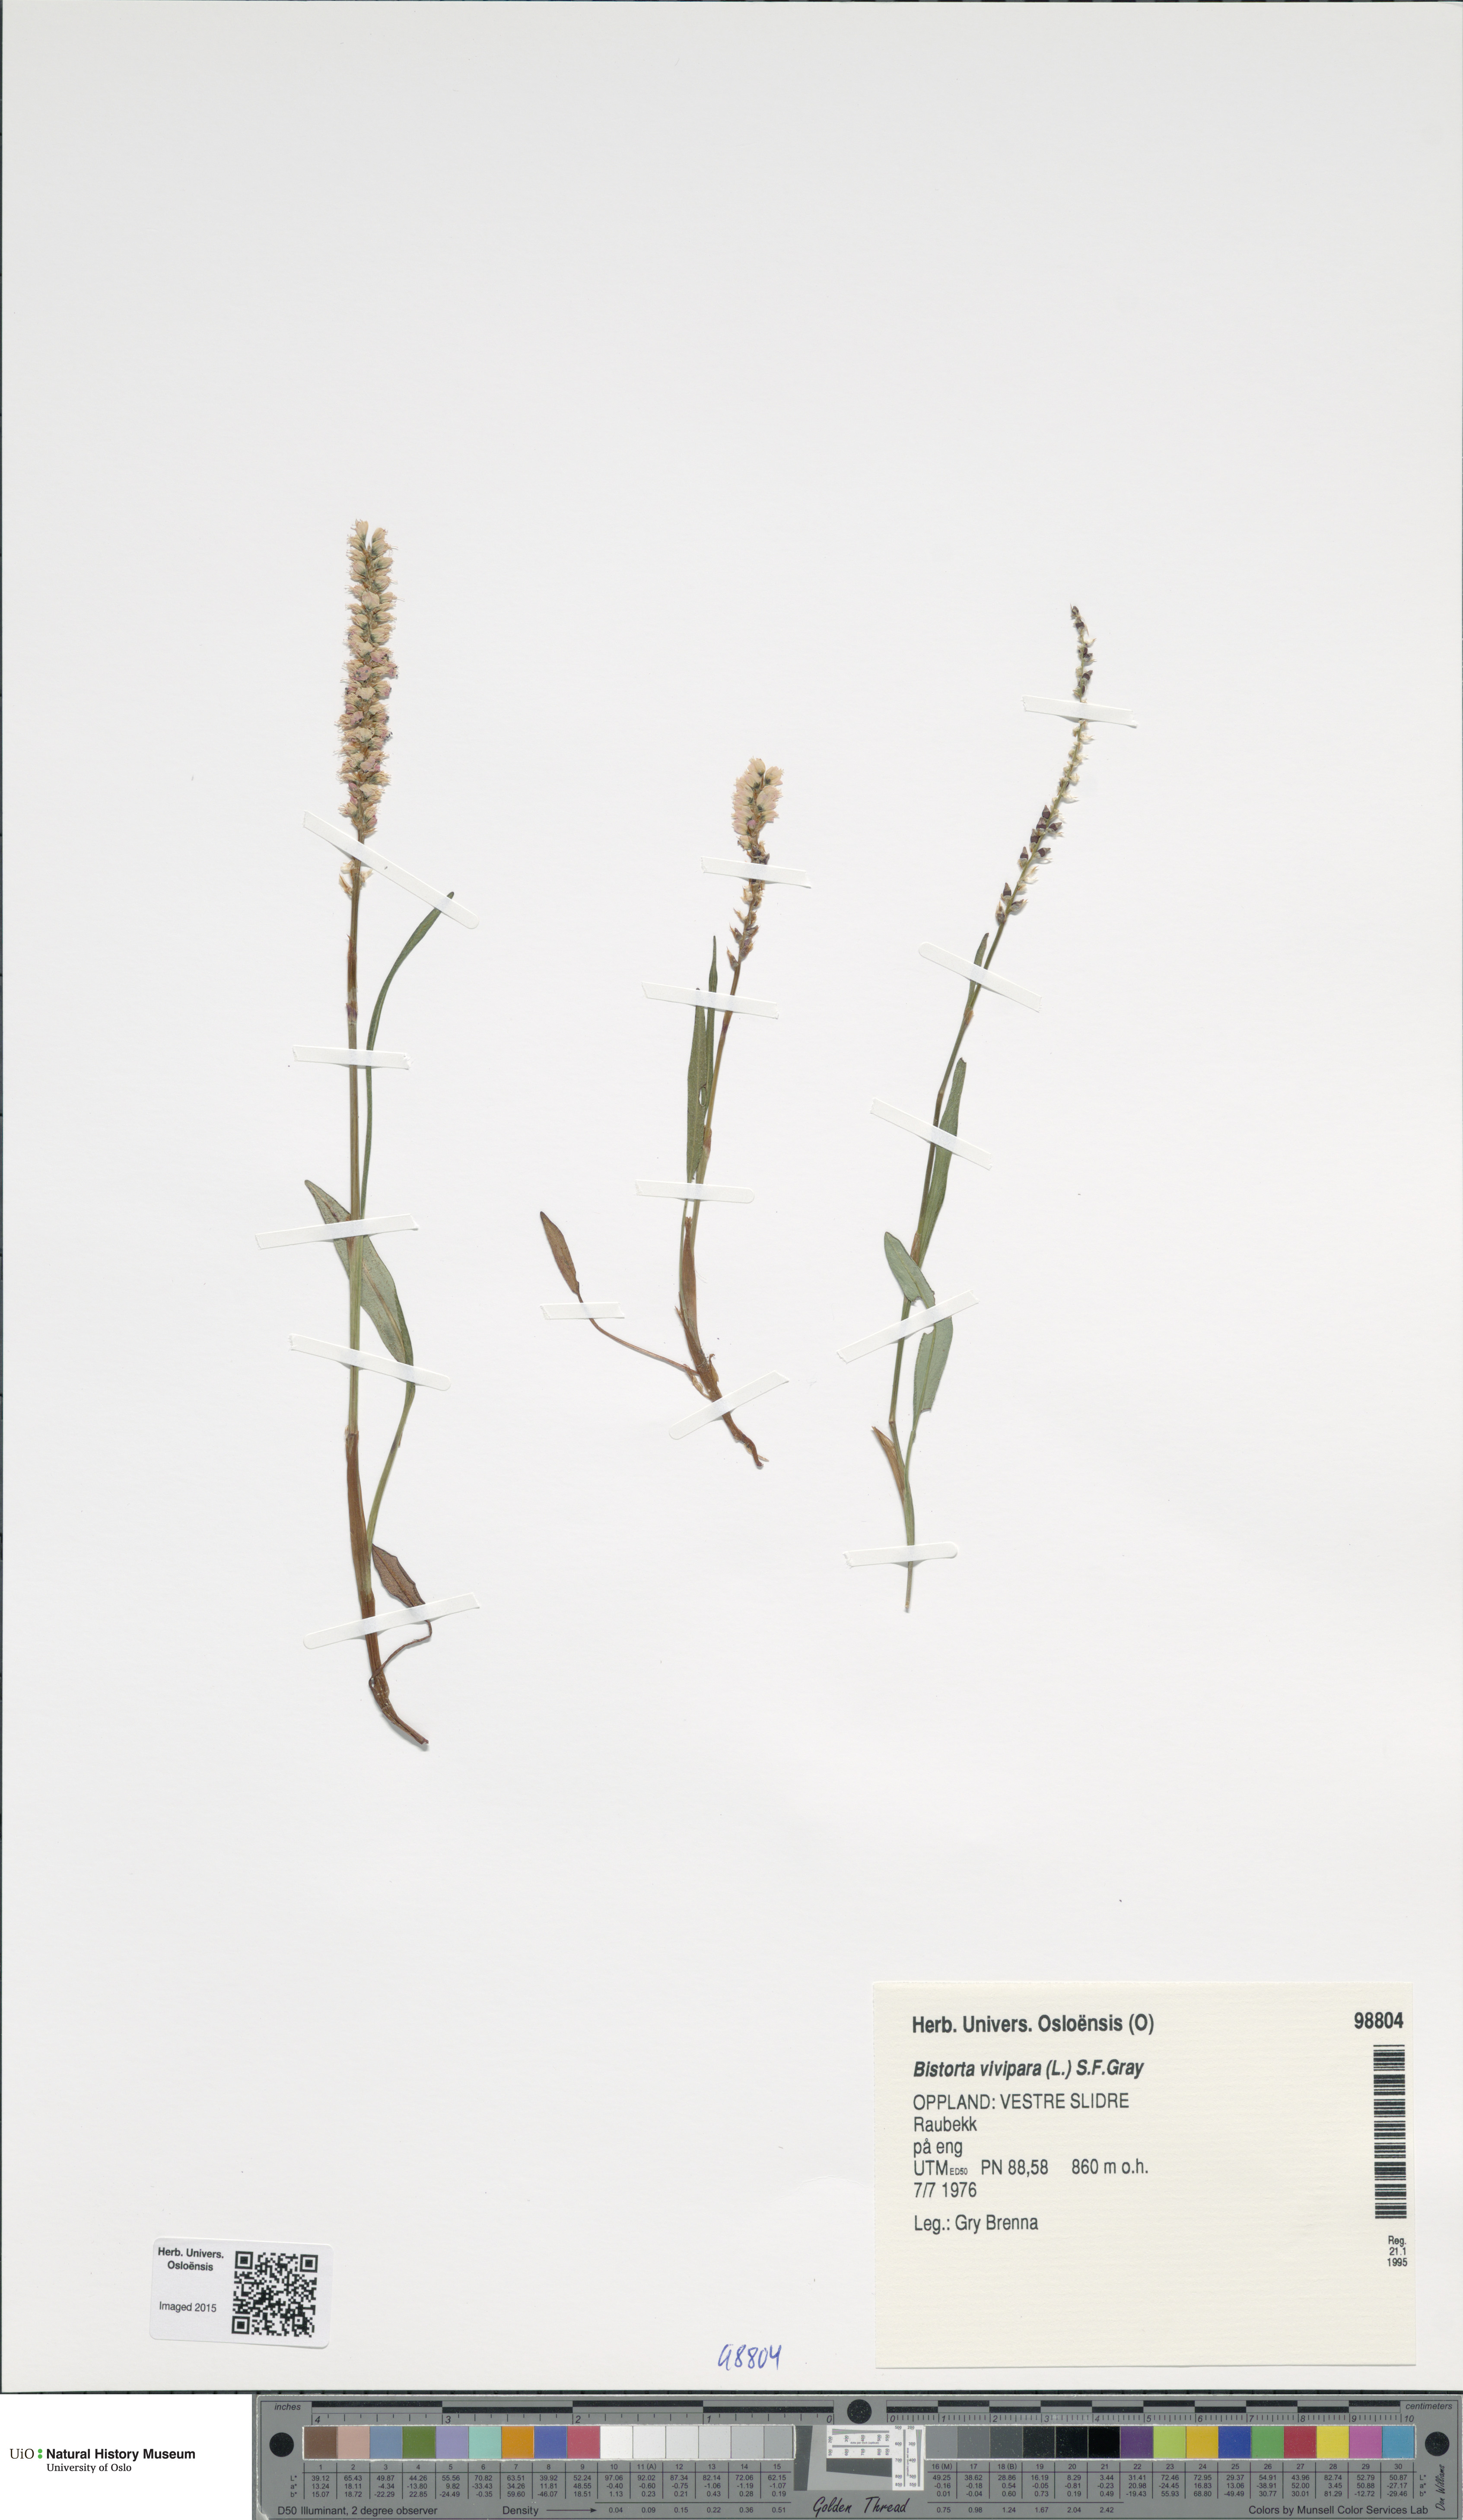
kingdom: Plantae
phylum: Tracheophyta
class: Magnoliopsida
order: Caryophyllales
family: Polygonaceae
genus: Bistorta
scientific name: Bistorta vivipara
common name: Alpine bistort
